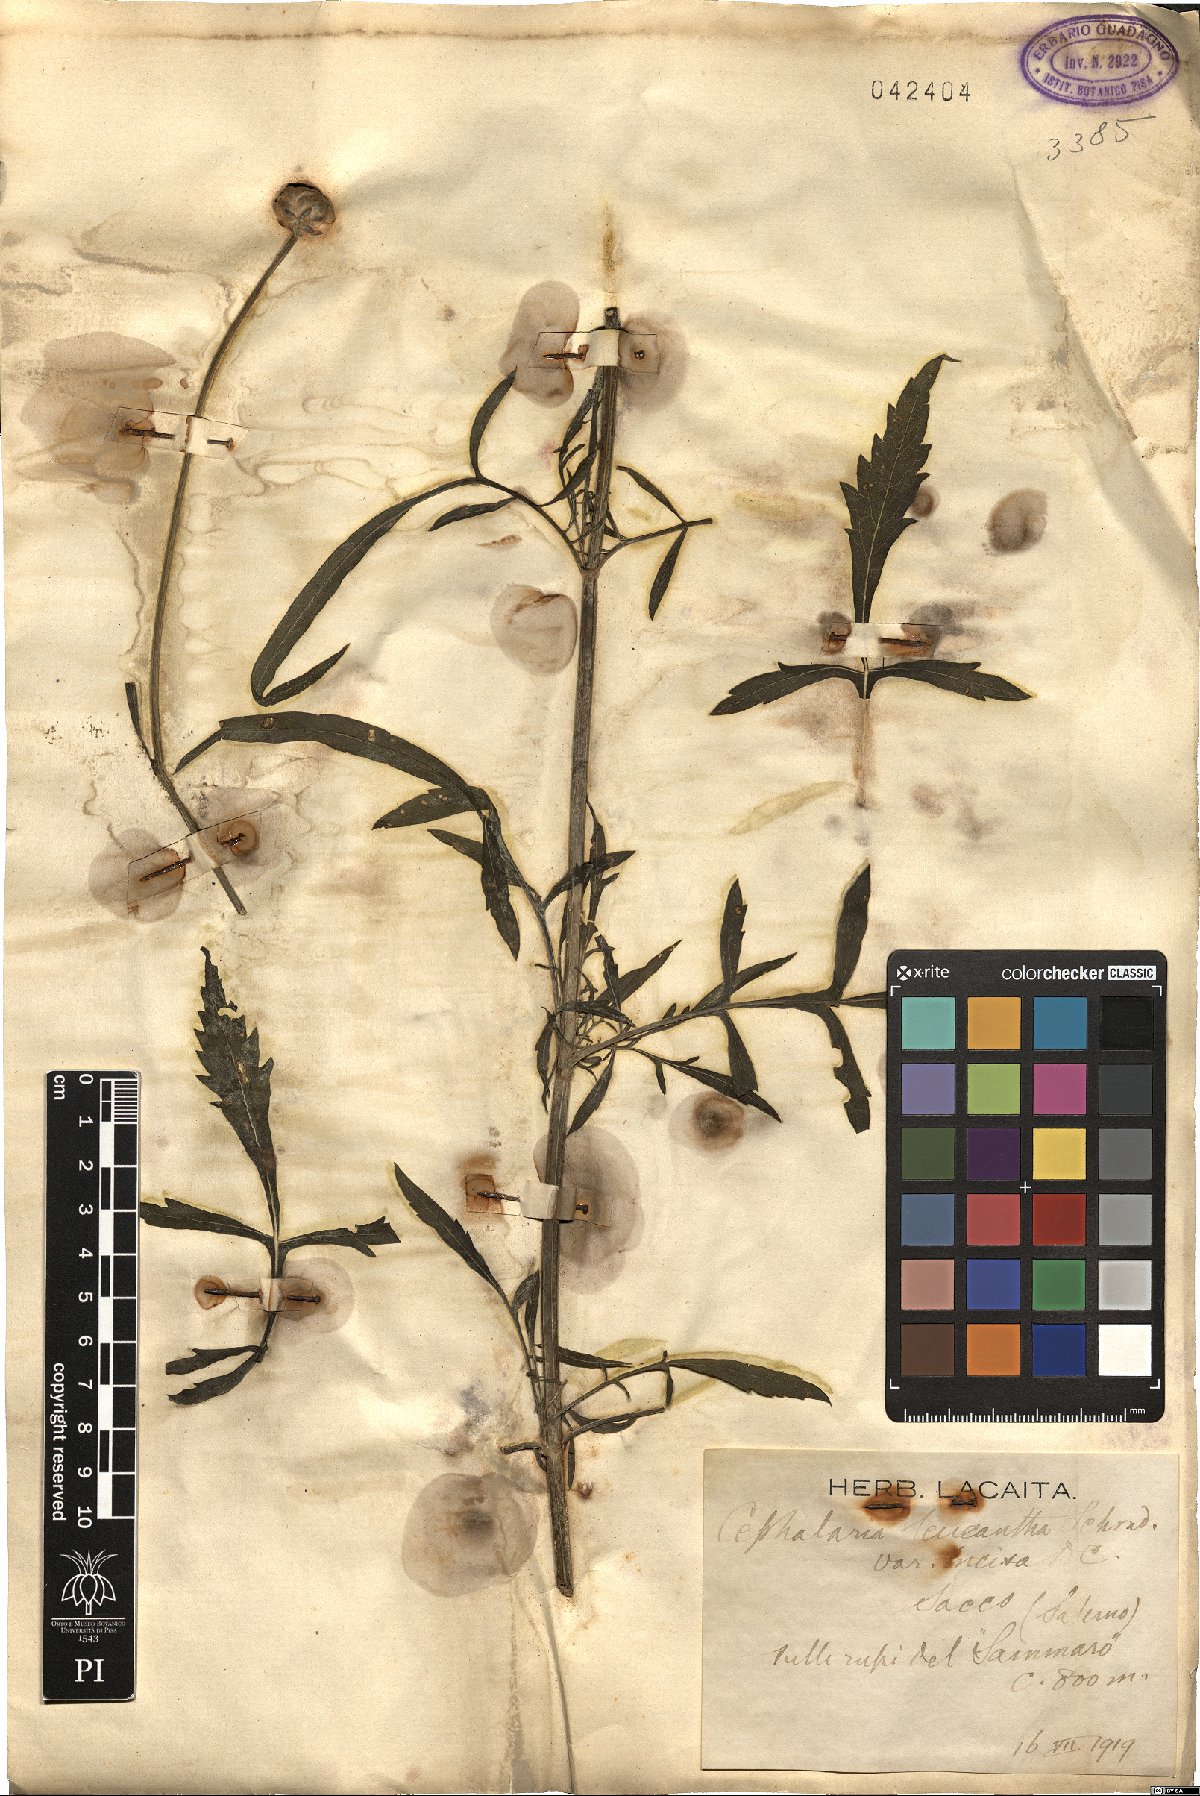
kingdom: Plantae
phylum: Tracheophyta
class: Magnoliopsida
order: Dipsacales
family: Caprifoliaceae
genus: Cephalaria
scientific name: Cephalaria leucantha
